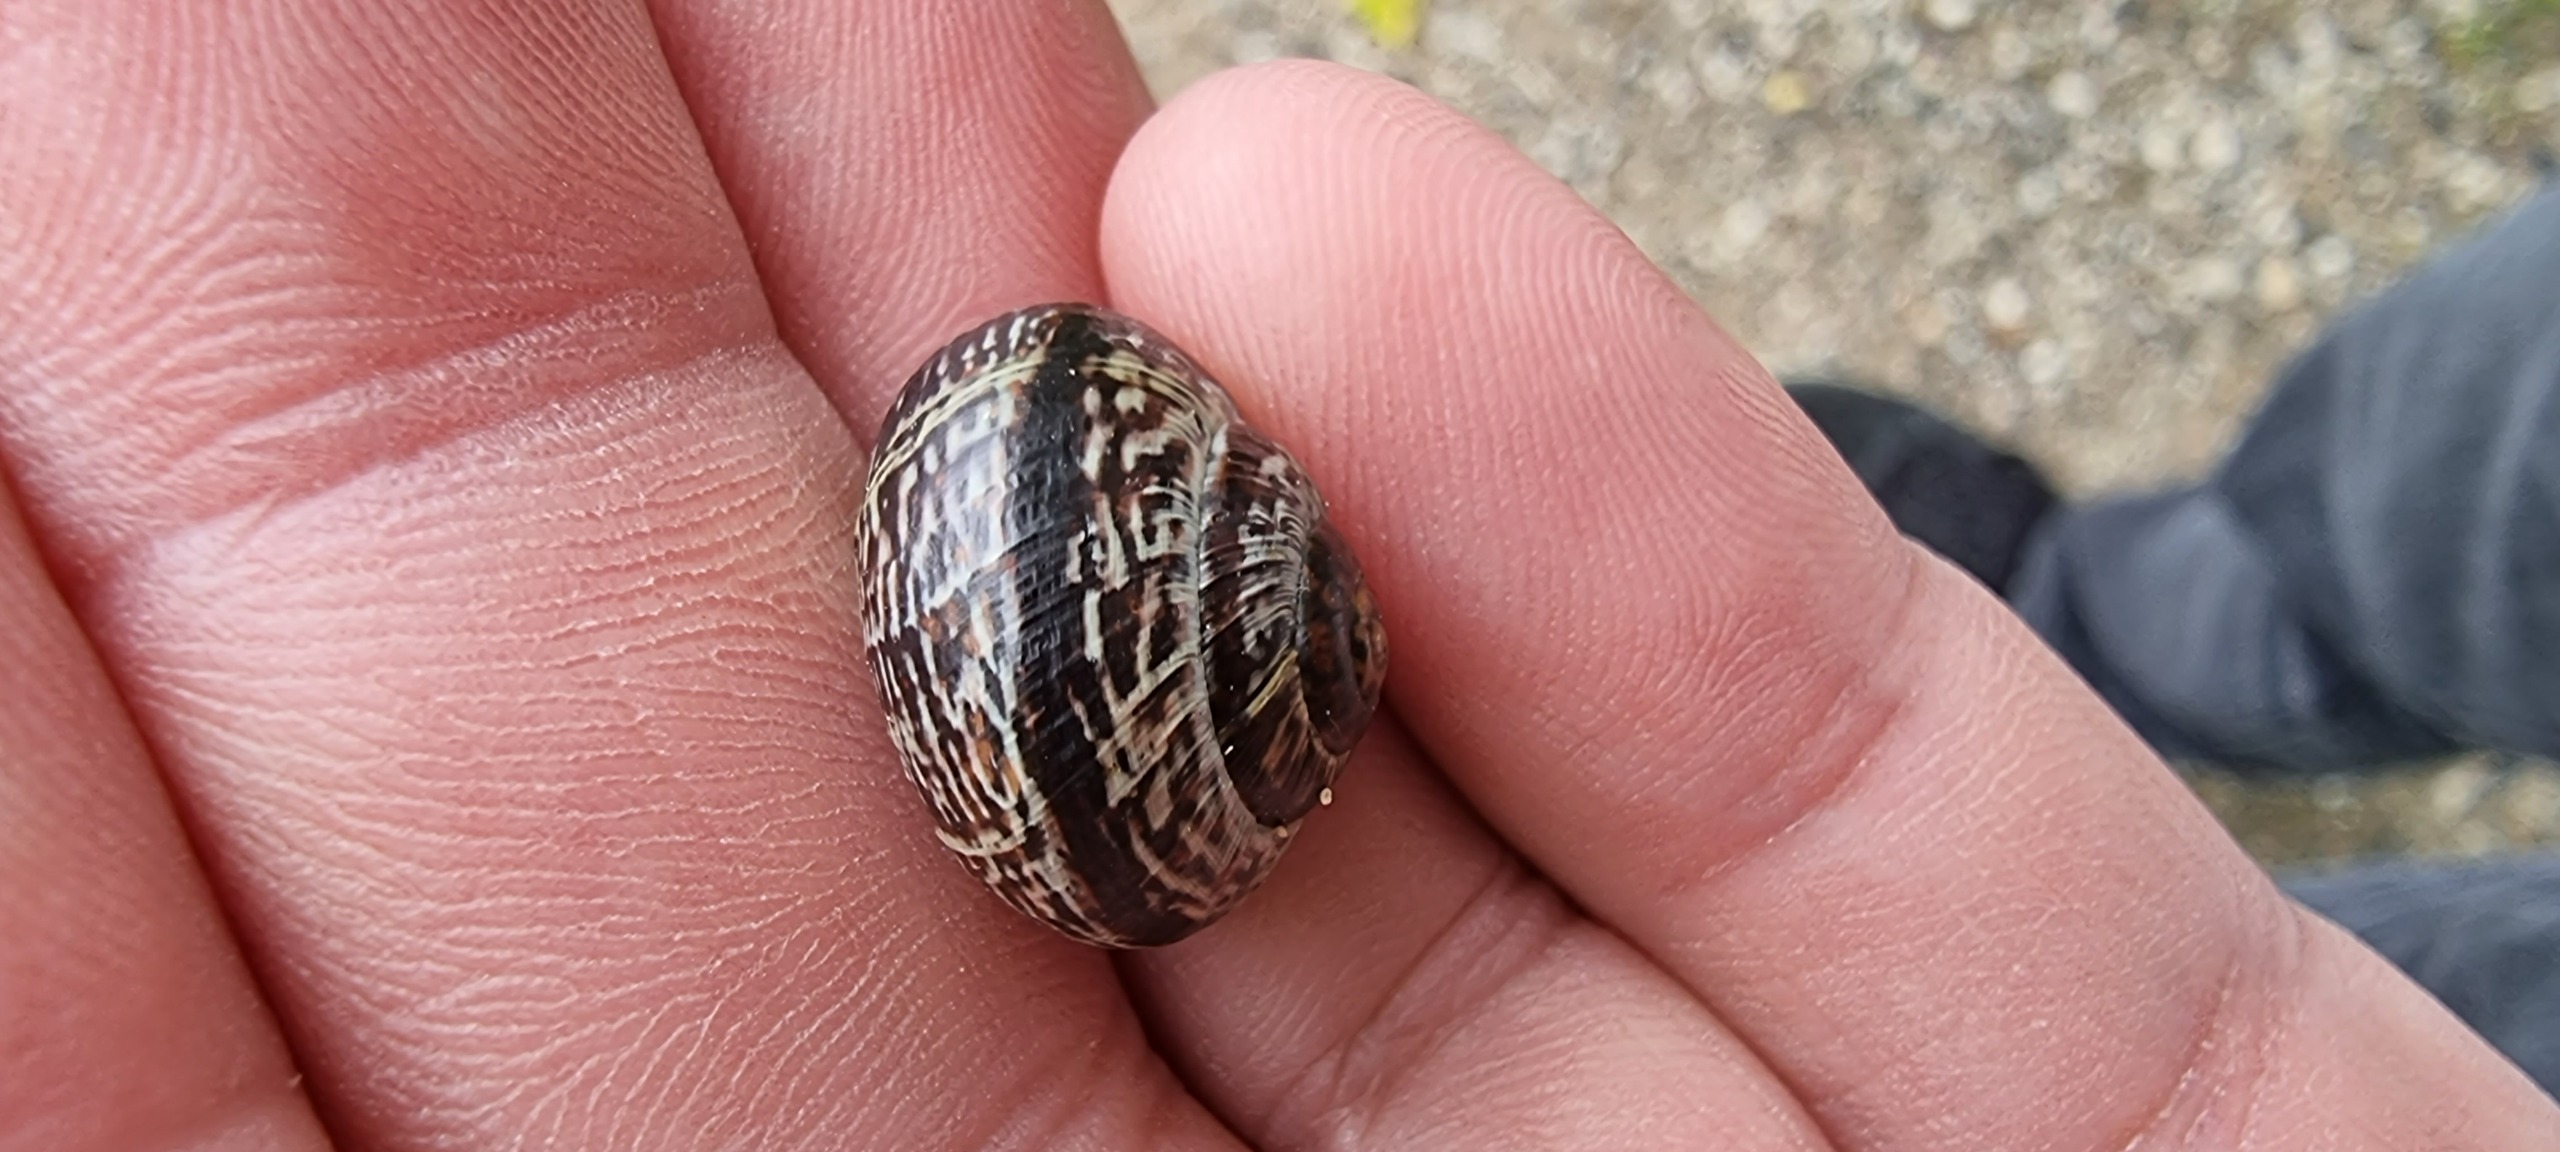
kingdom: Animalia
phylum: Mollusca
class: Gastropoda
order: Stylommatophora
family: Helicidae
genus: Arianta
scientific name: Arianta arbustorum
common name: Kratsnegl
